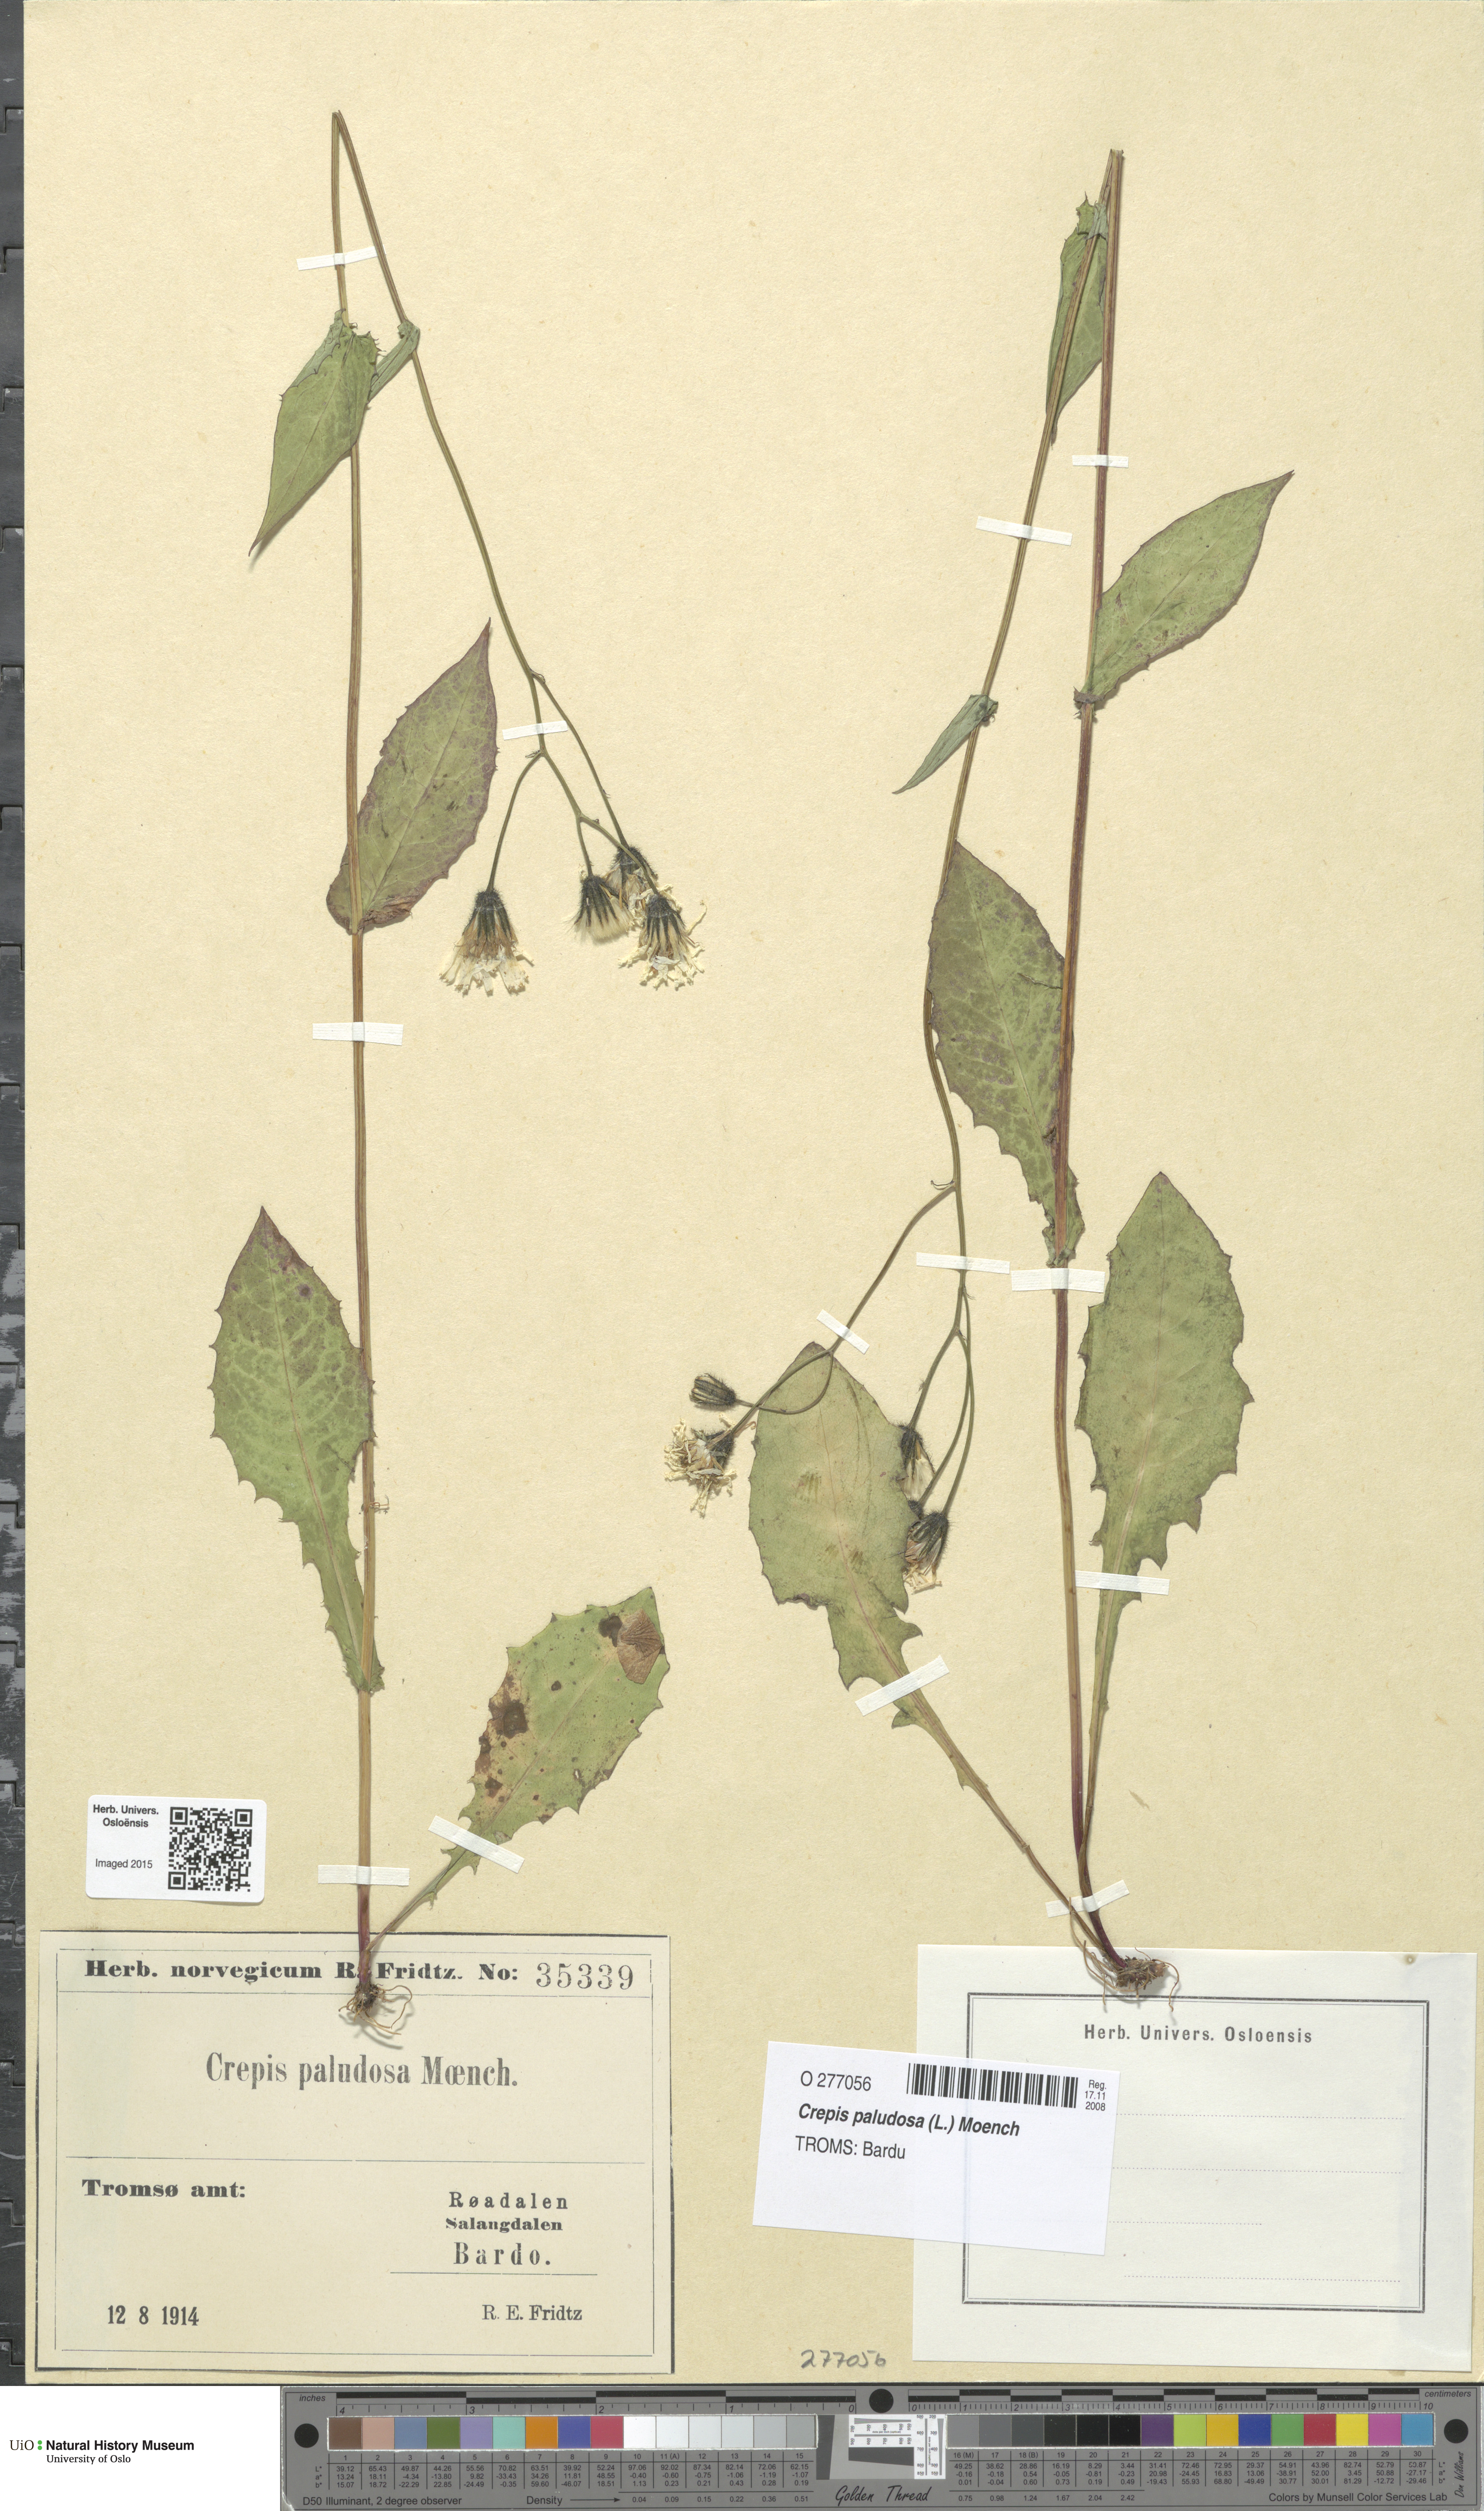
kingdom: Plantae
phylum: Tracheophyta
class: Magnoliopsida
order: Asterales
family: Asteraceae
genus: Crepis
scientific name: Crepis paludosa
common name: Marsh hawk's-beard
